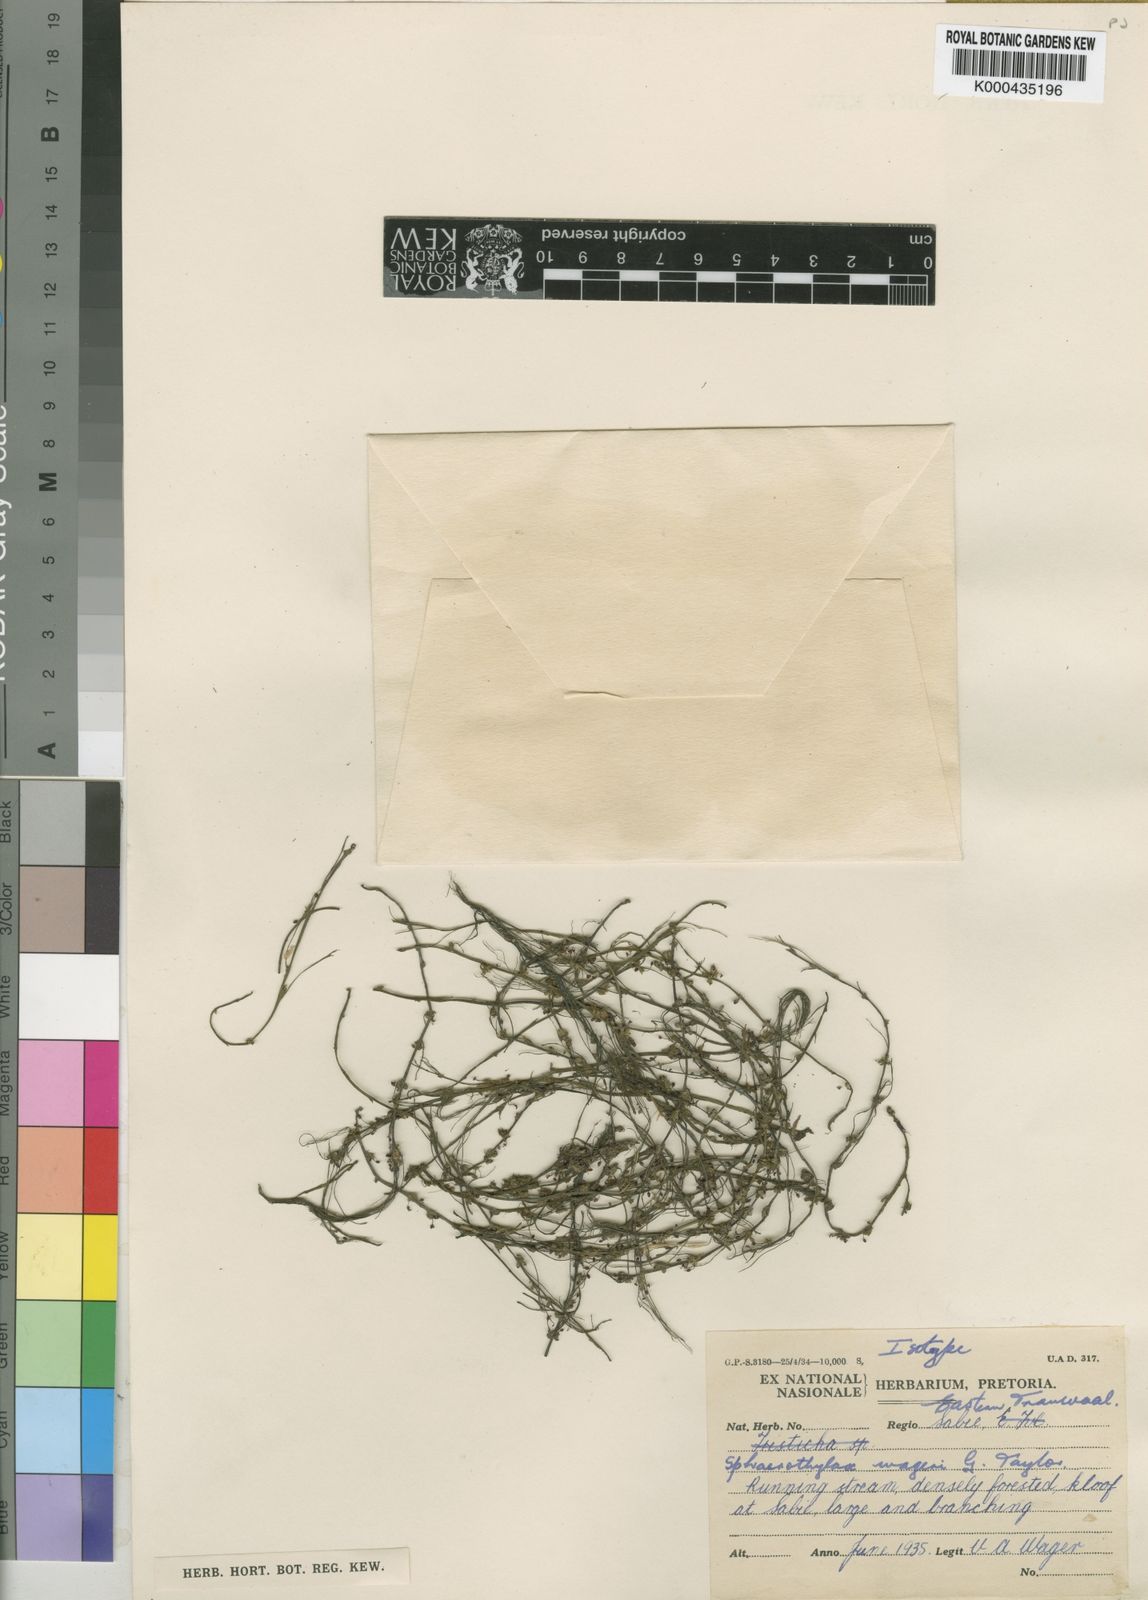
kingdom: Plantae
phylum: Tracheophyta
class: Magnoliopsida
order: Malpighiales
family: Podostemaceae
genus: Sphaerothylax
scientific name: Sphaerothylax algiformis
